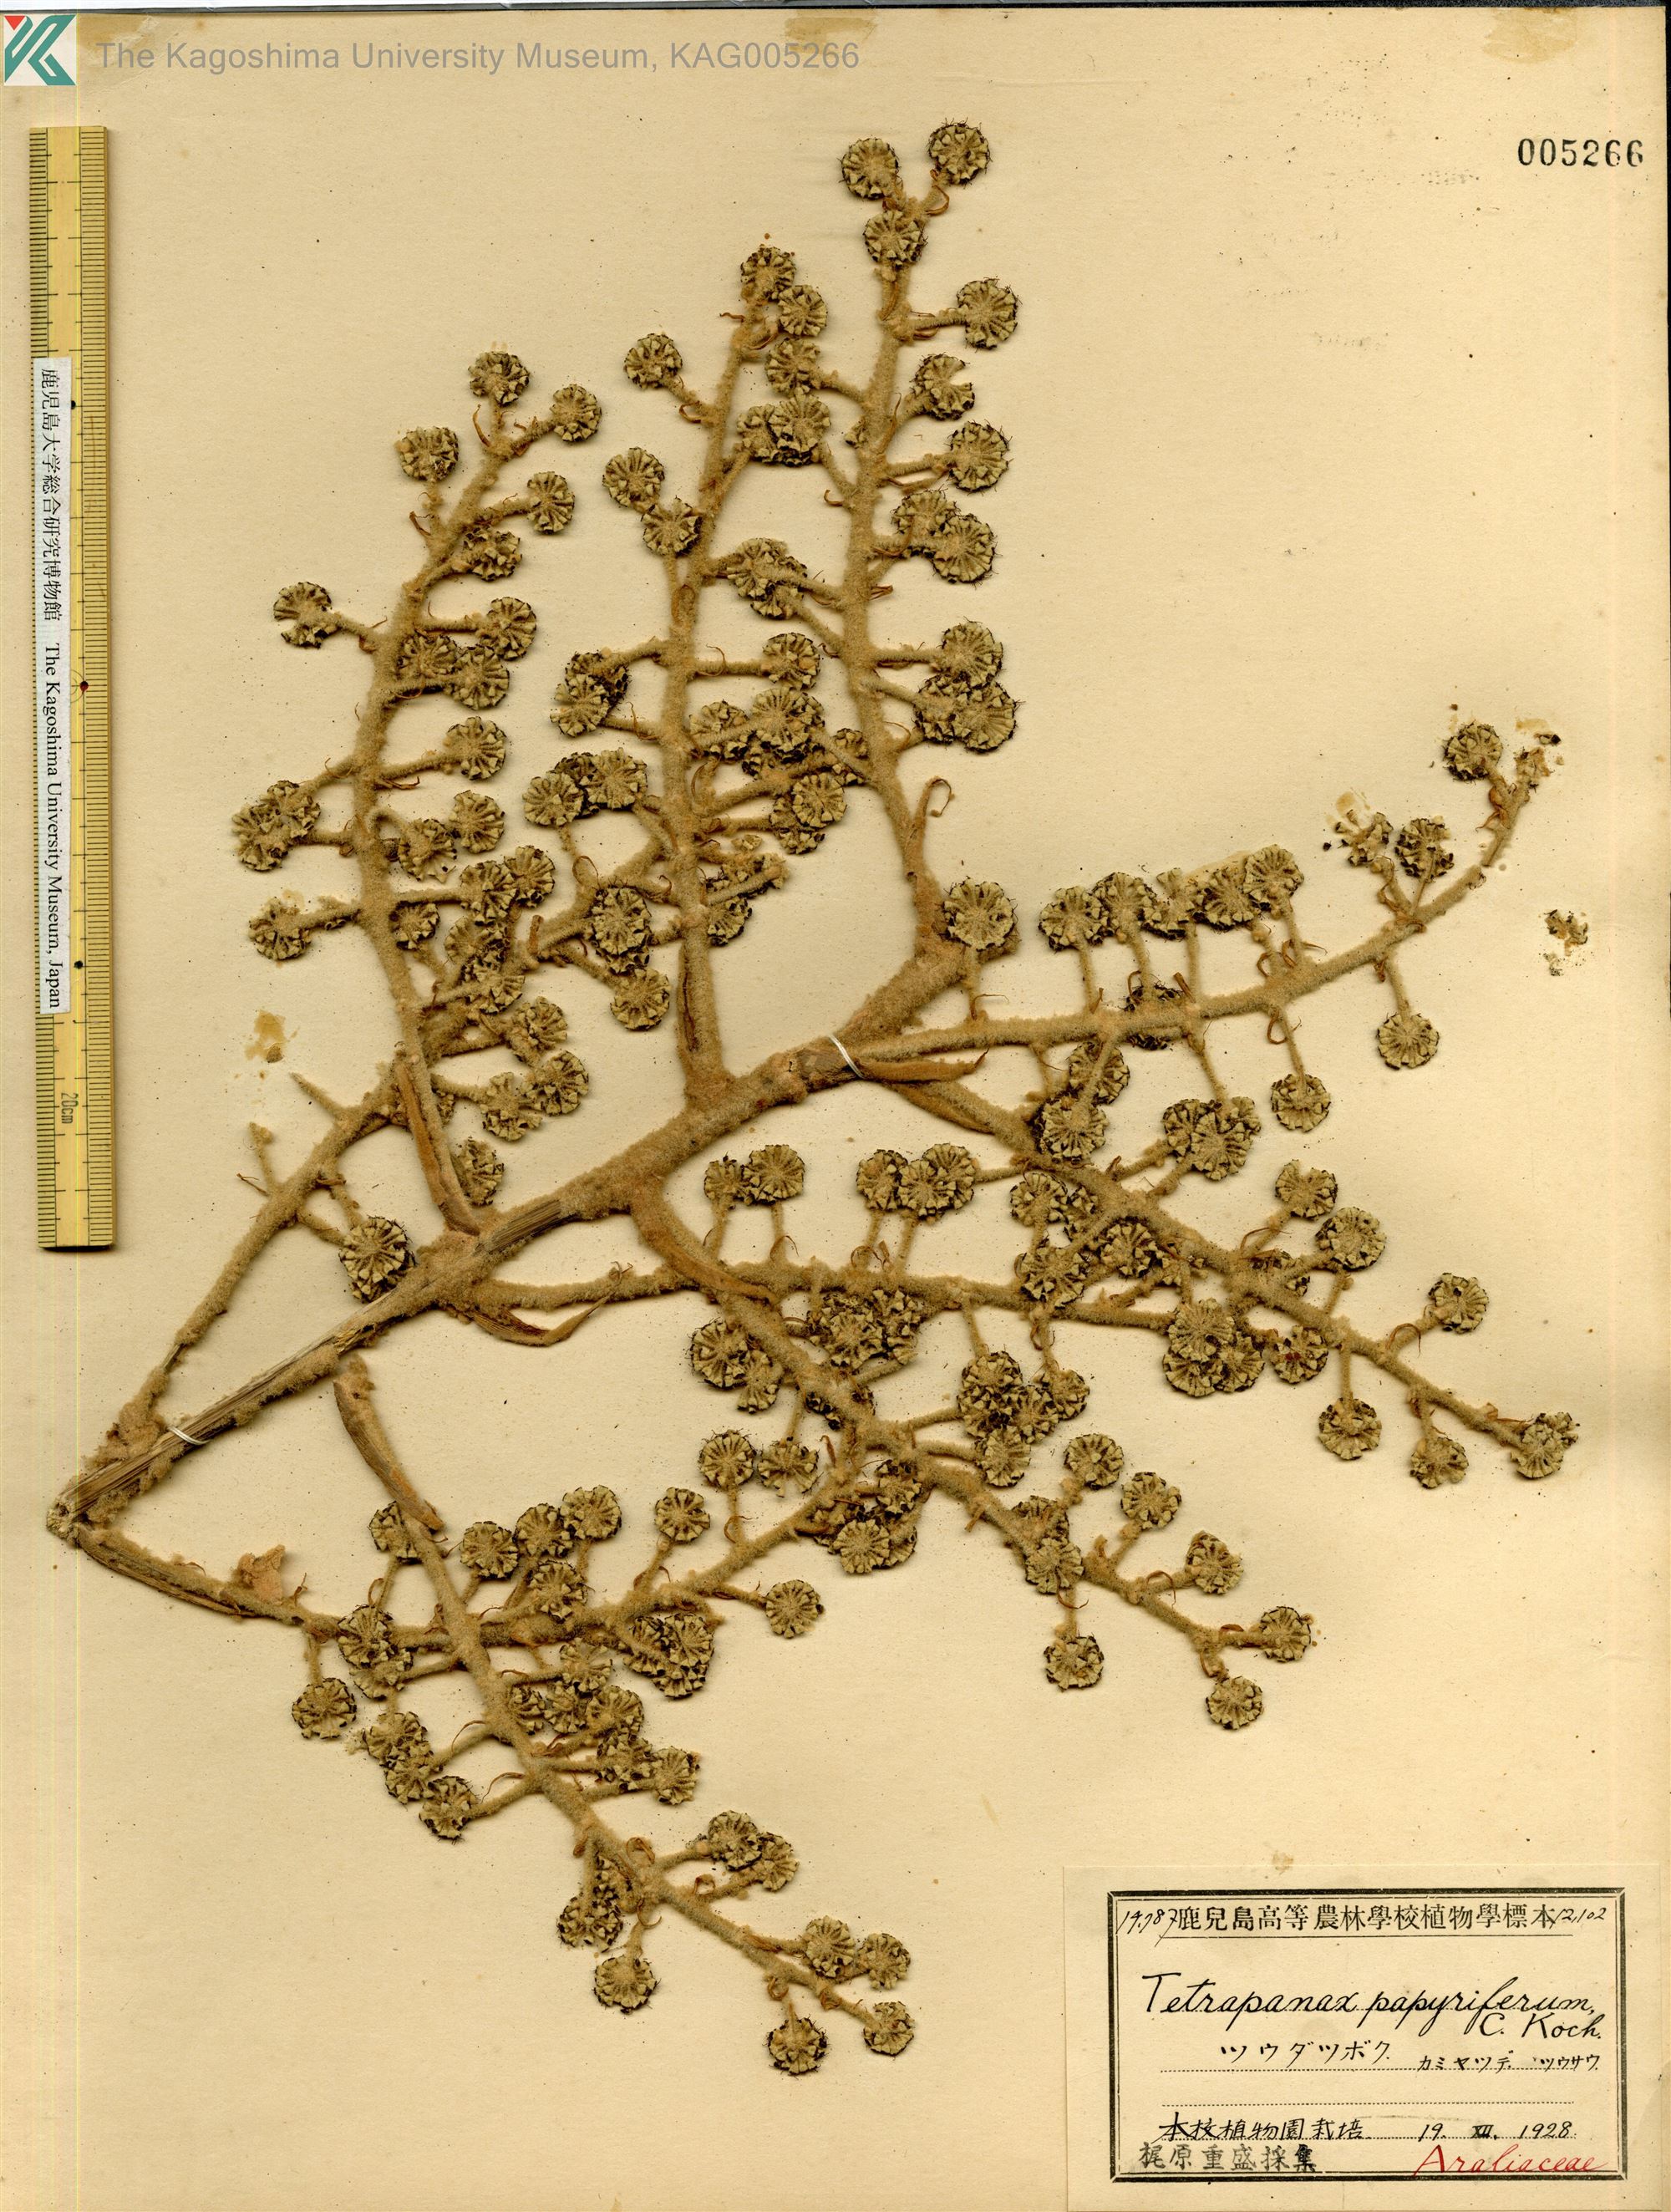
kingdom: Plantae
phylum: Tracheophyta
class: Magnoliopsida
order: Apiales
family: Araliaceae
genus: Tetrapanax
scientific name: Tetrapanax papyrifer
